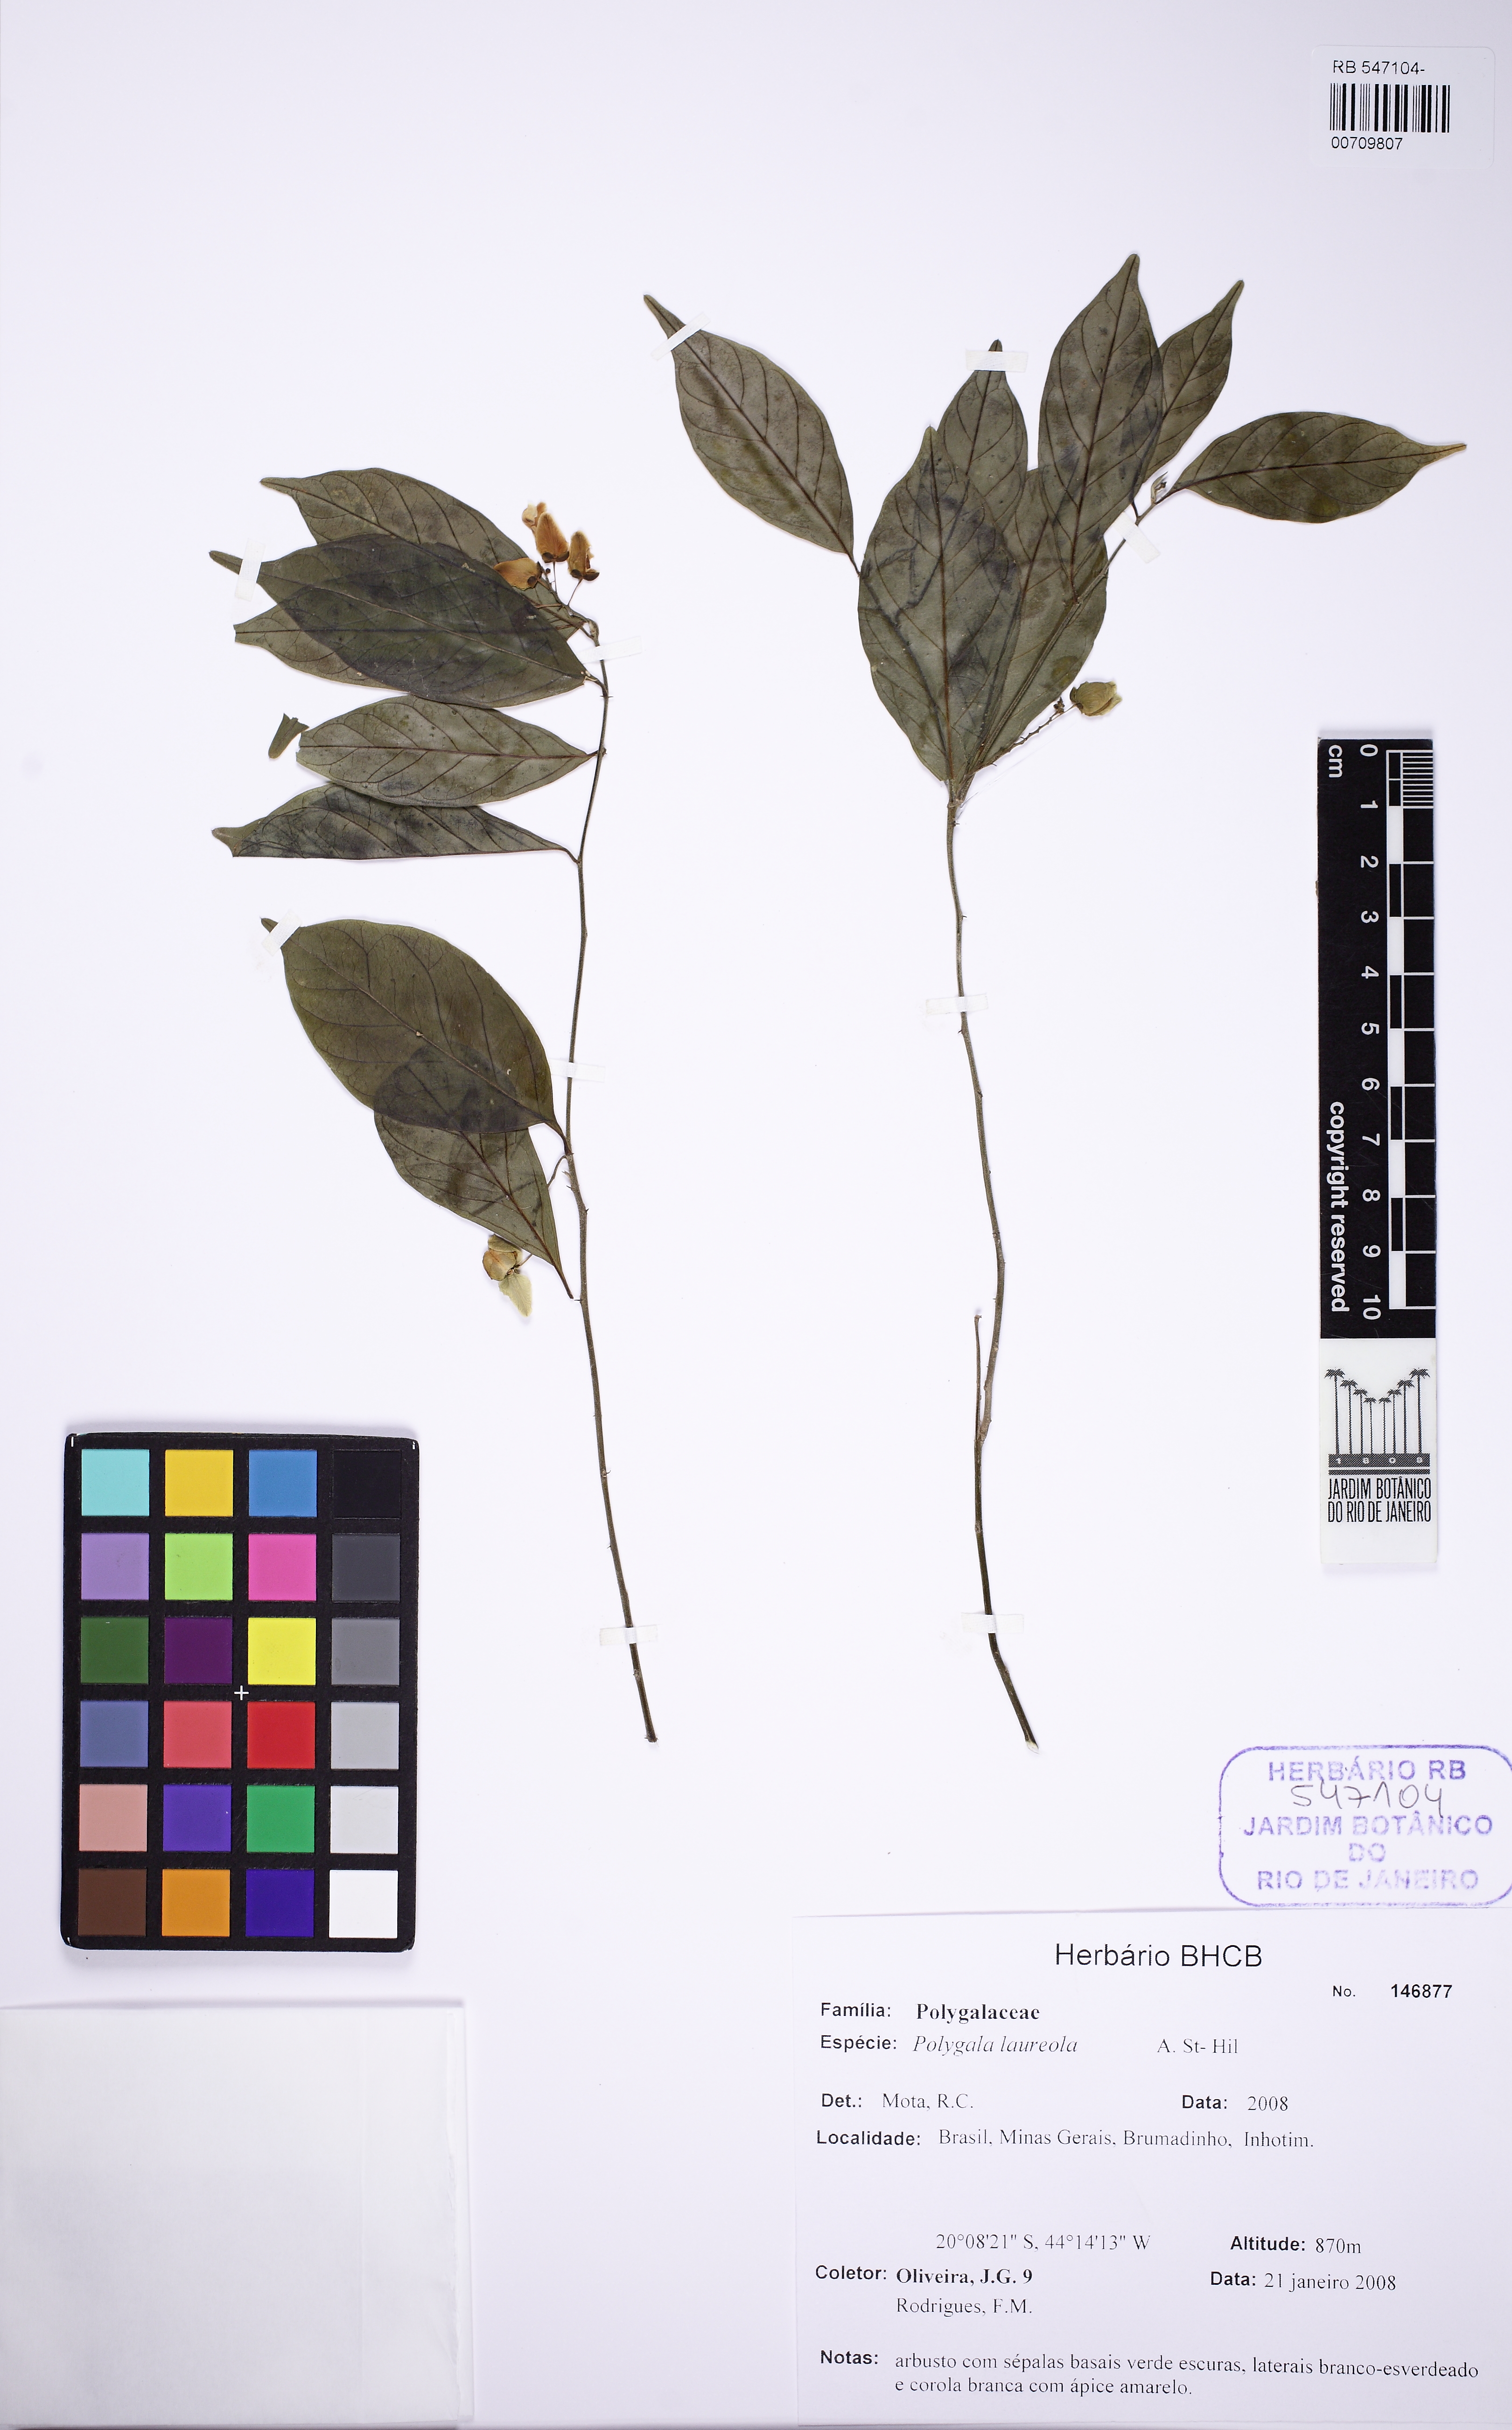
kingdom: Plantae
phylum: Tracheophyta
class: Magnoliopsida
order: Fabales
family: Polygalaceae
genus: Caamembeca
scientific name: Caamembeca salicifolia
